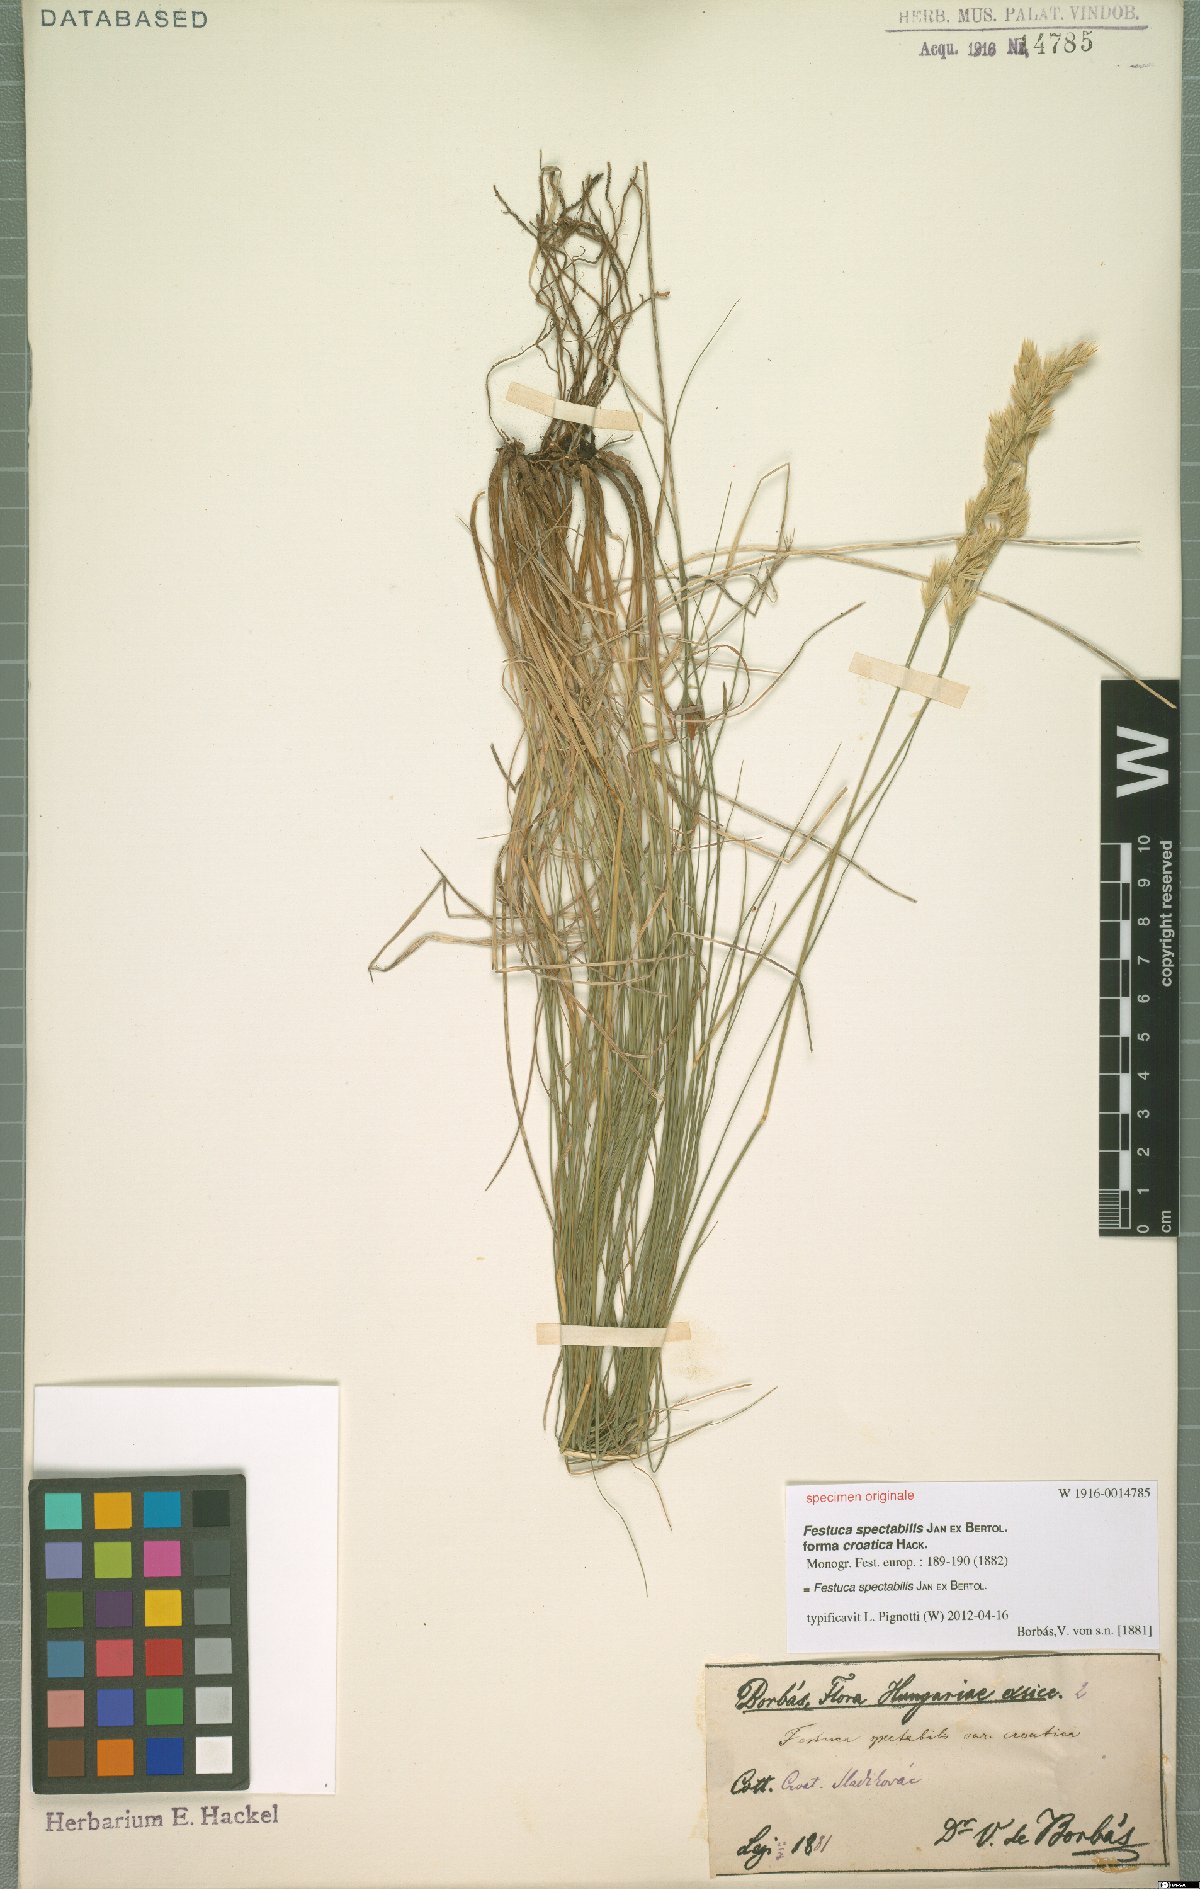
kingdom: Plantae
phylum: Tracheophyta
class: Liliopsida
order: Poales
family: Poaceae
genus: Festuca
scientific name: Festuca spectabilis
